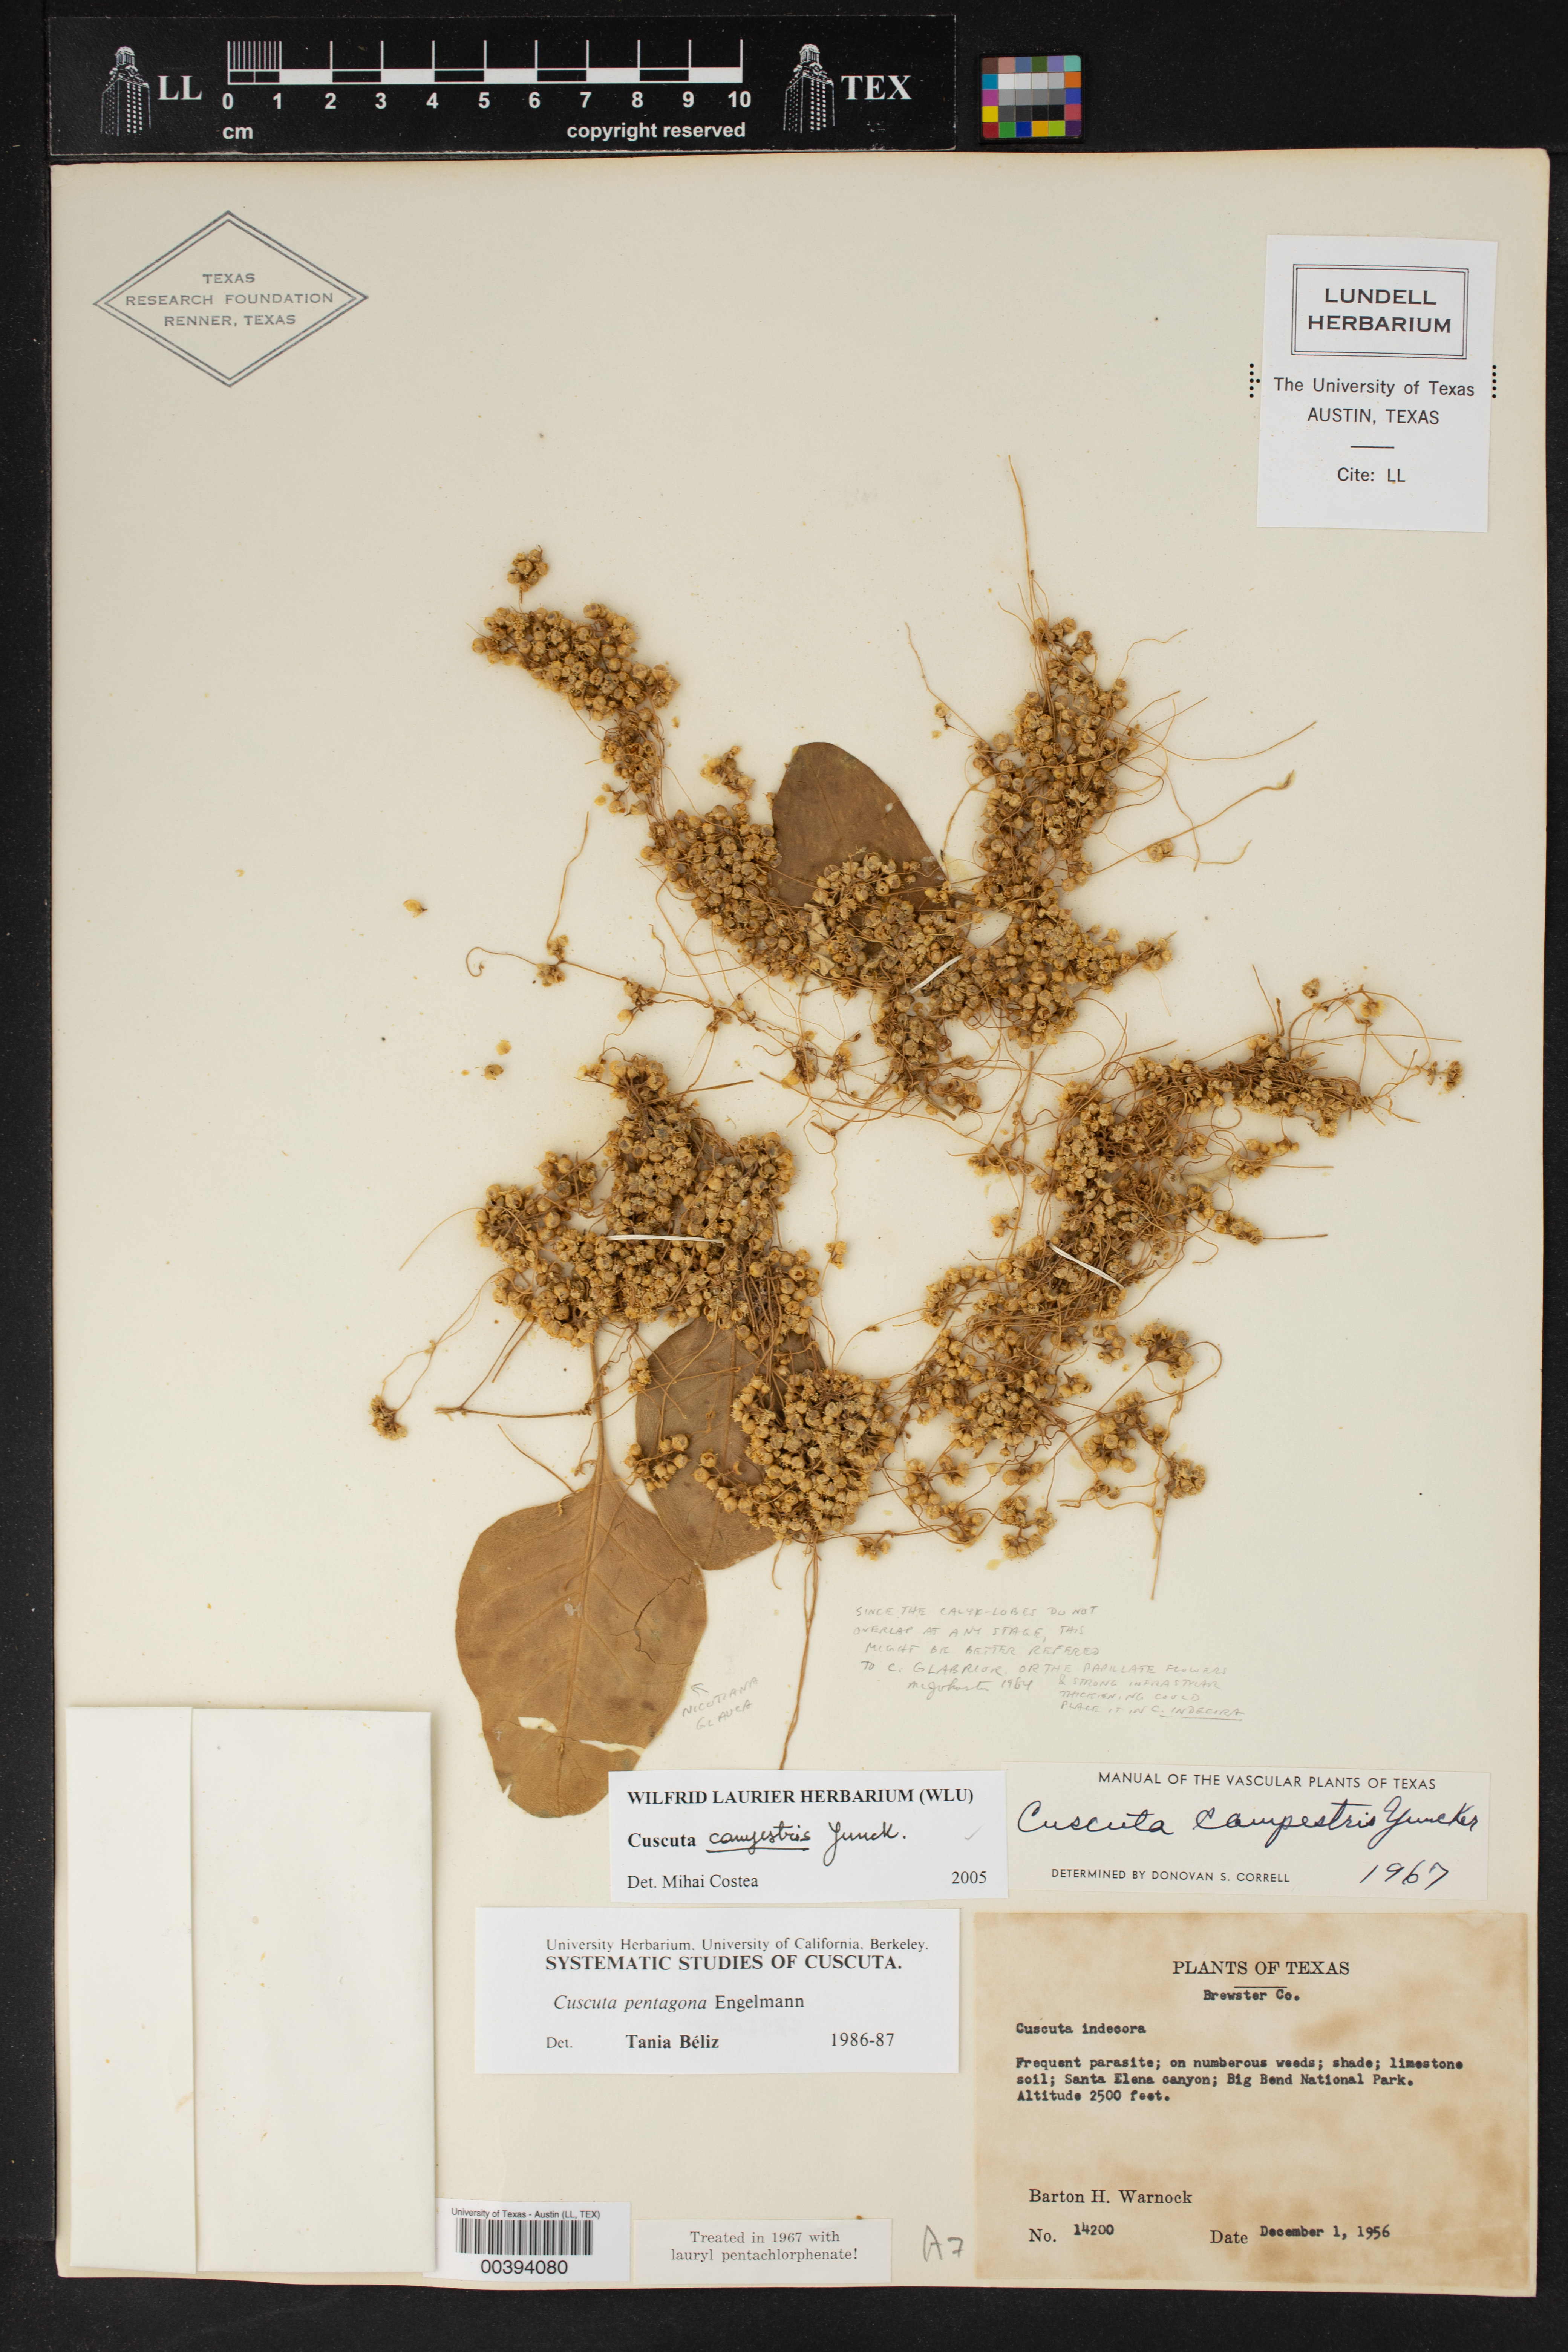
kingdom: Plantae
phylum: Tracheophyta
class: Magnoliopsida
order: Solanales
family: Convolvulaceae
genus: Cuscuta
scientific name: Cuscuta campestris
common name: Yellow dodder
